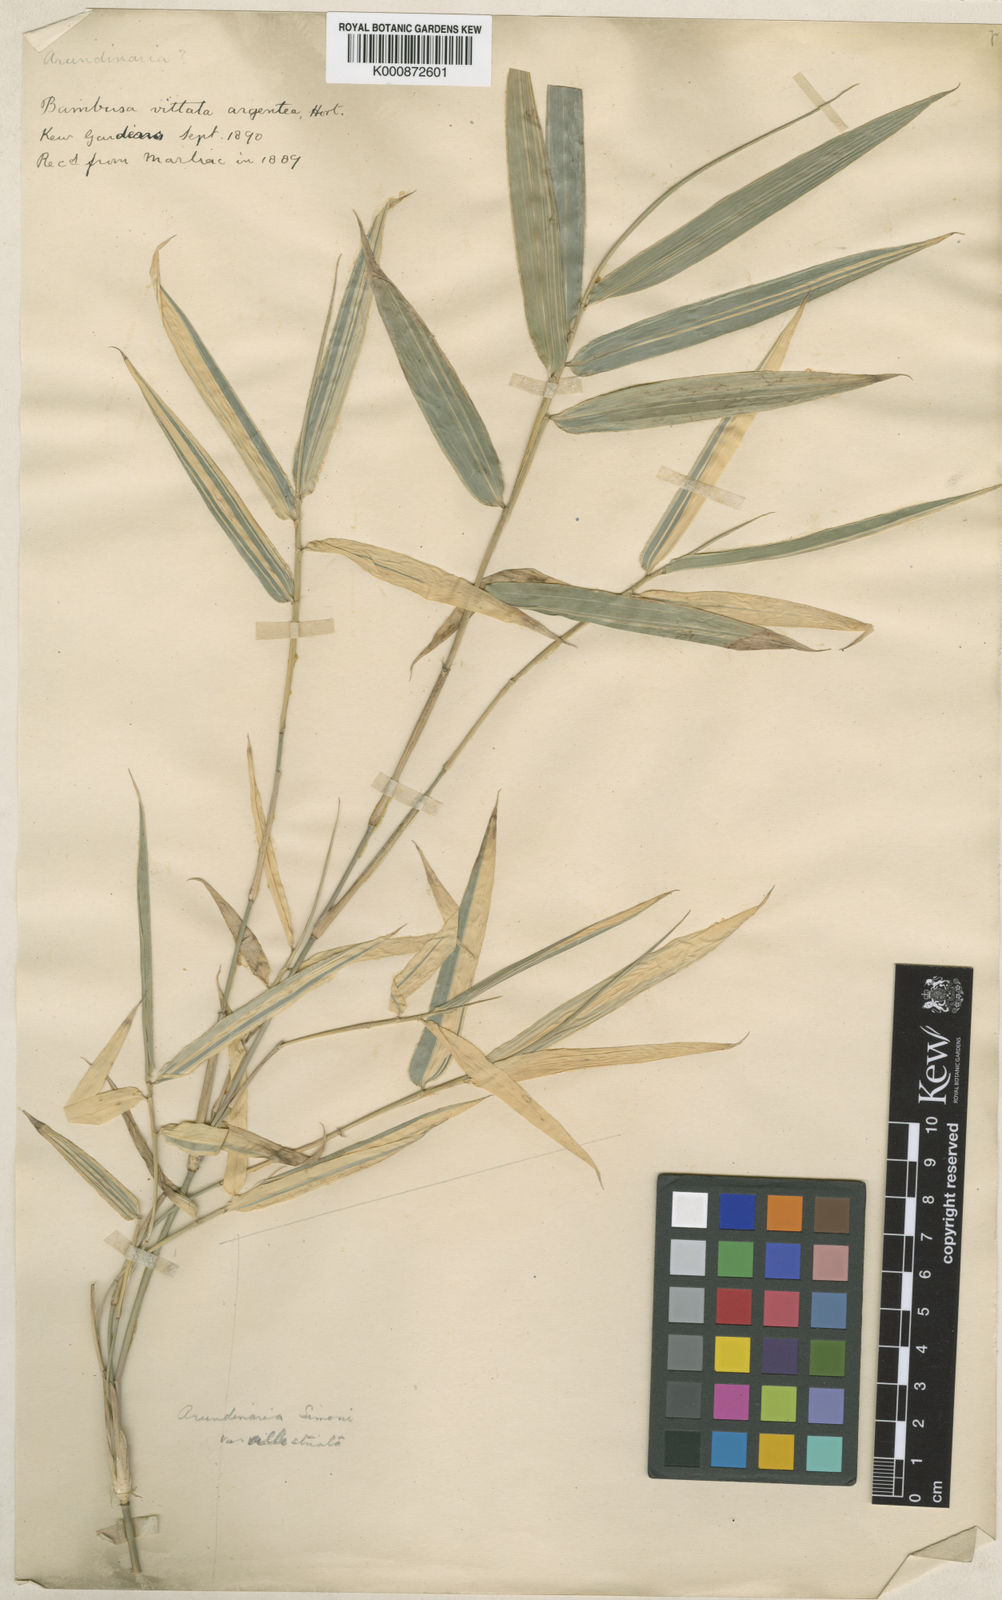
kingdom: Plantae
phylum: Tracheophyta
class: Liliopsida
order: Poales
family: Poaceae
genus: Arundinaria
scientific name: Arundinaria
